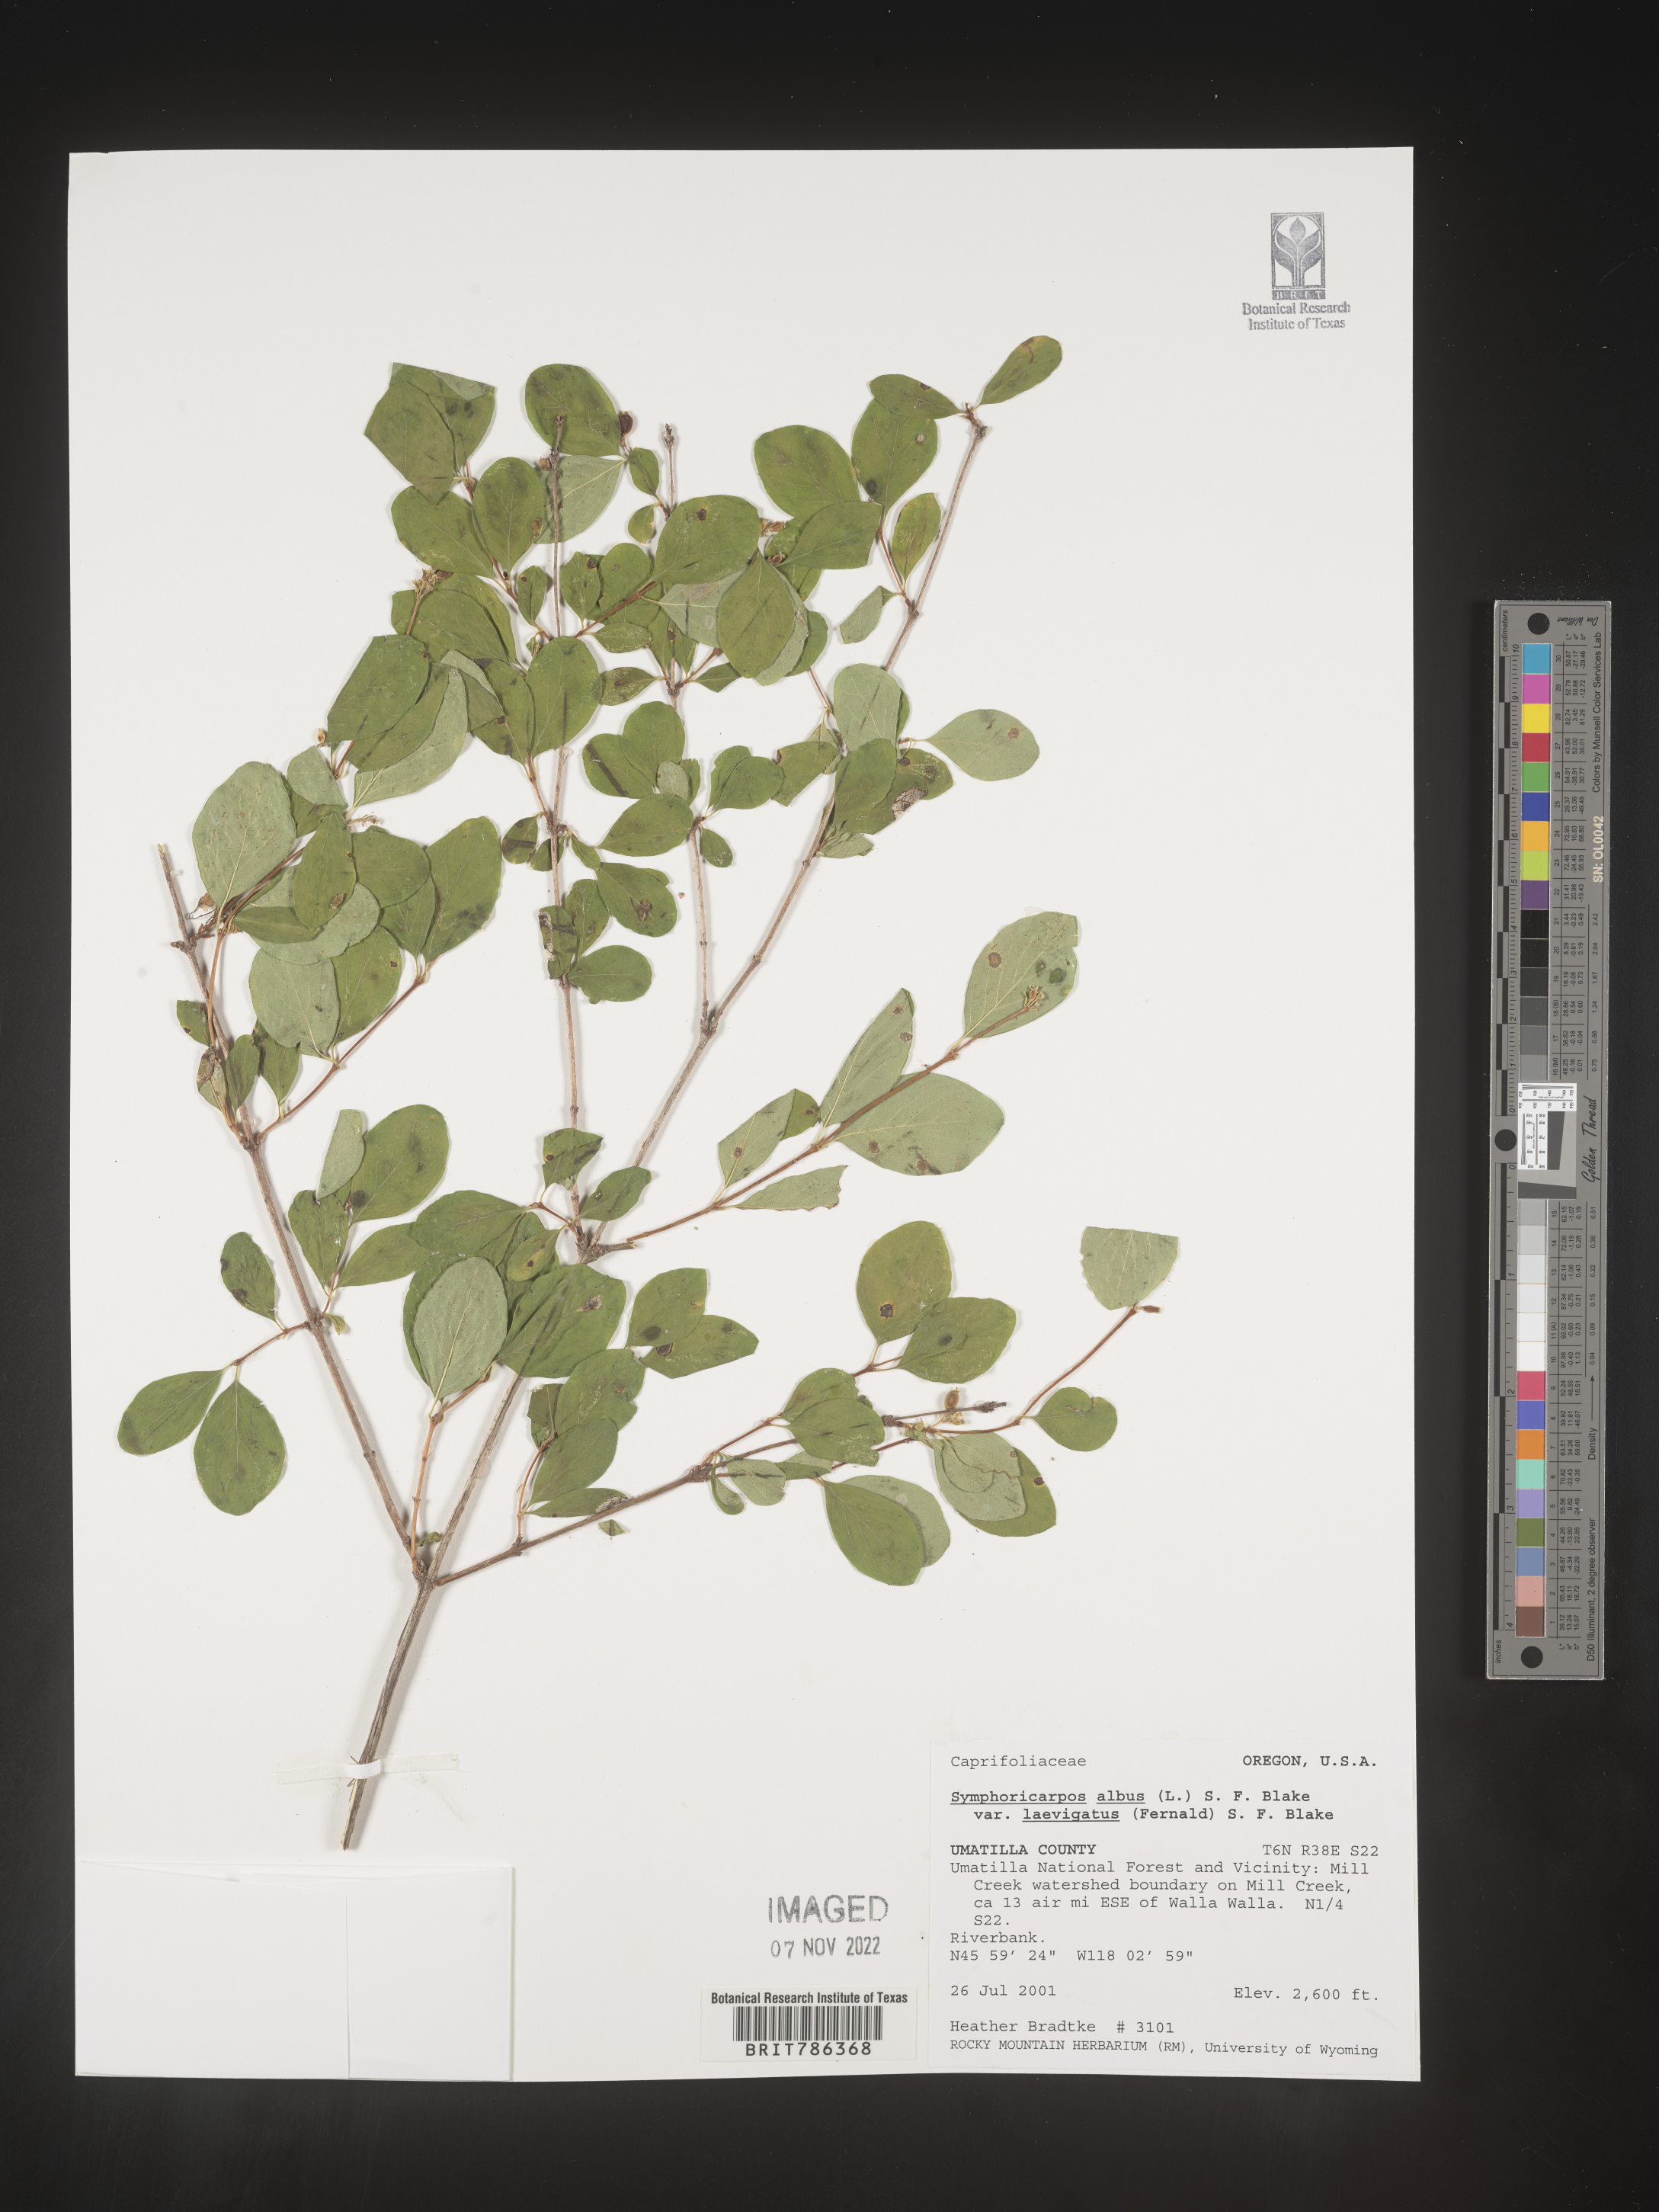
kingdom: Plantae
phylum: Tracheophyta
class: Magnoliopsida
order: Dipsacales
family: Caprifoliaceae
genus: Symphoricarpos
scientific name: Symphoricarpos albus
